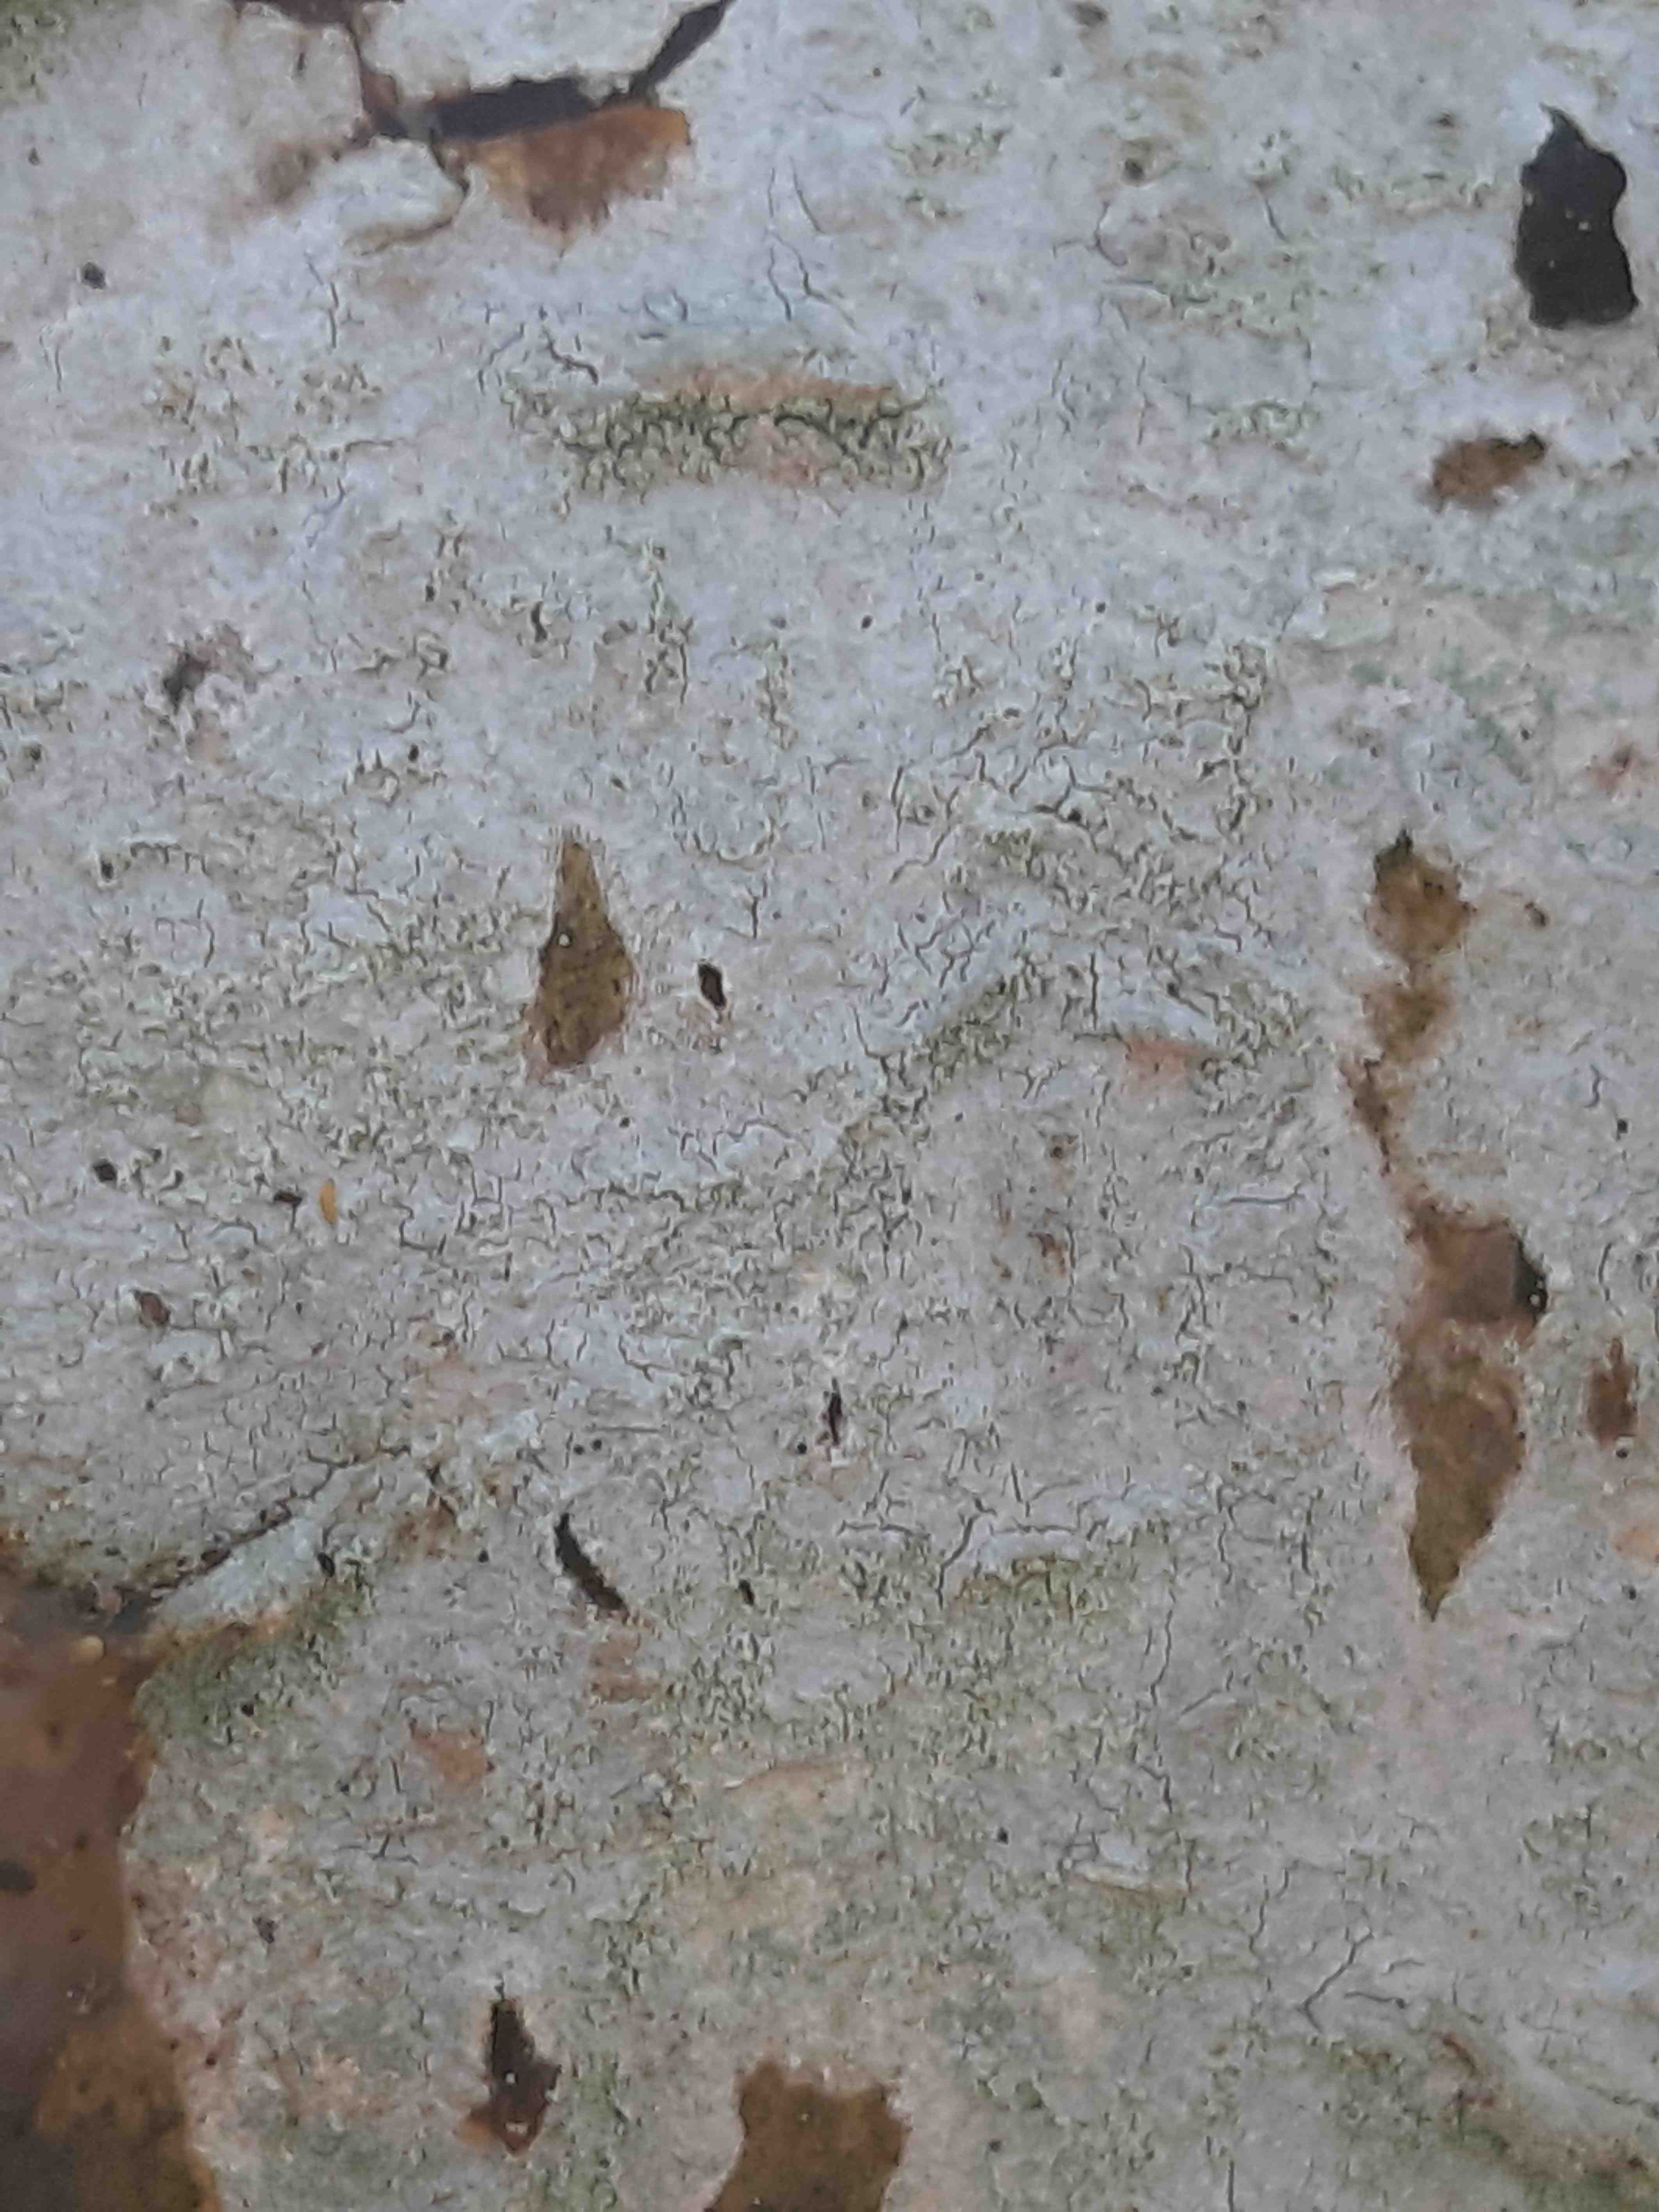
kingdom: Plantae
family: Lecanoromycetidae
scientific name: Lecanoromycetidae
